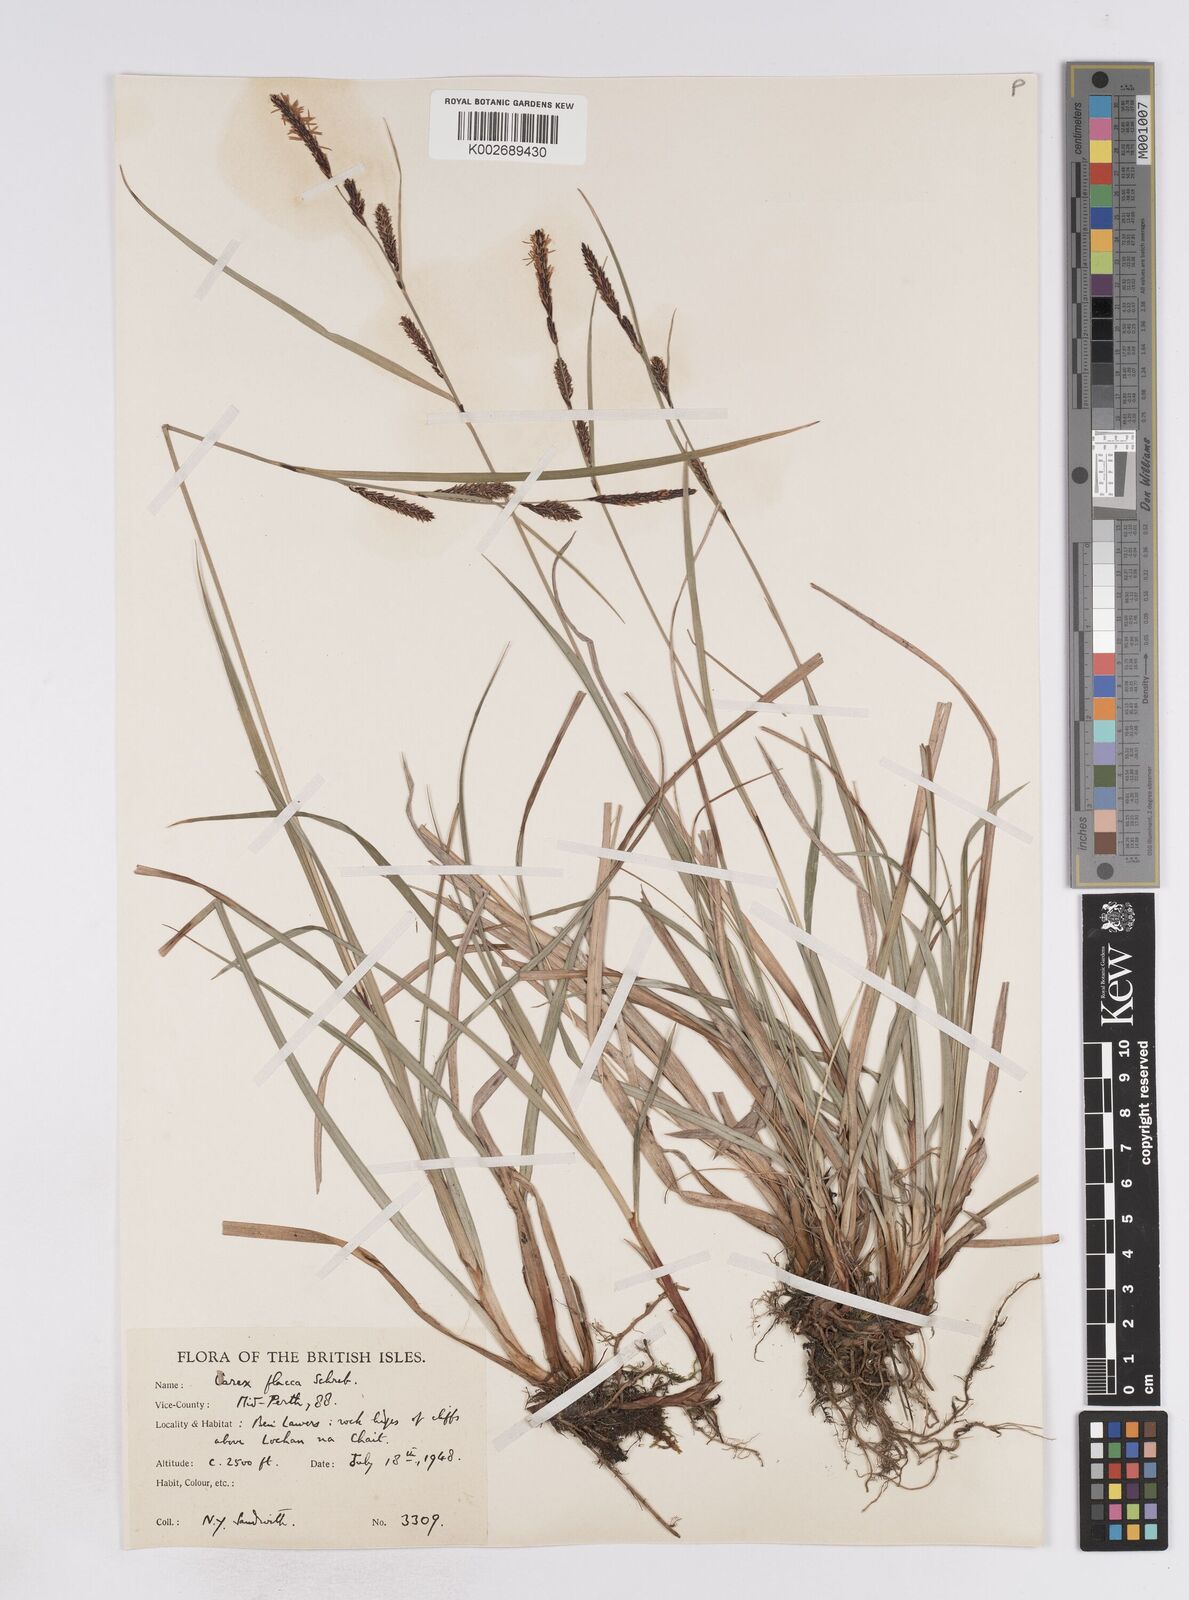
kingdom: Plantae
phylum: Tracheophyta
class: Liliopsida
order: Poales
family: Cyperaceae
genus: Carex
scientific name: Carex flacca
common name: Glaucous sedge
